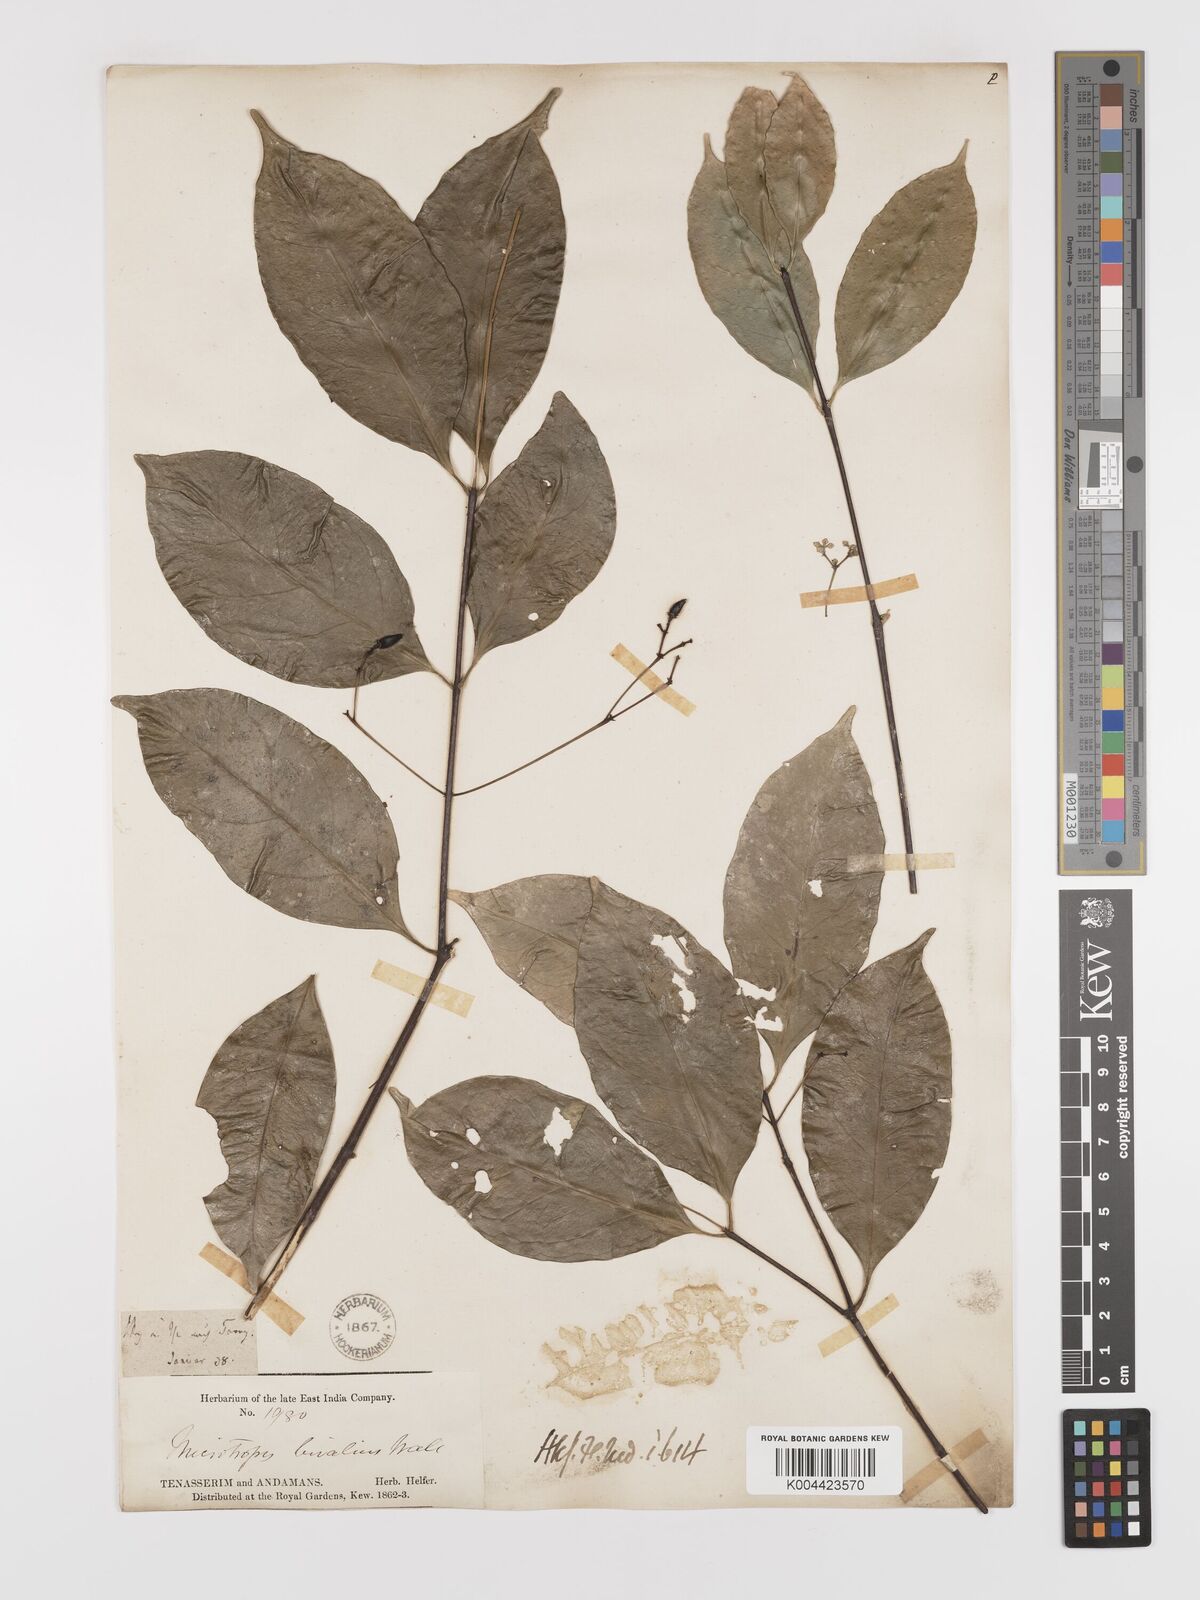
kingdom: Plantae
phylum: Tracheophyta
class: Magnoliopsida
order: Celastrales
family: Celastraceae
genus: Microtropis
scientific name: Microtropis bivalvis
